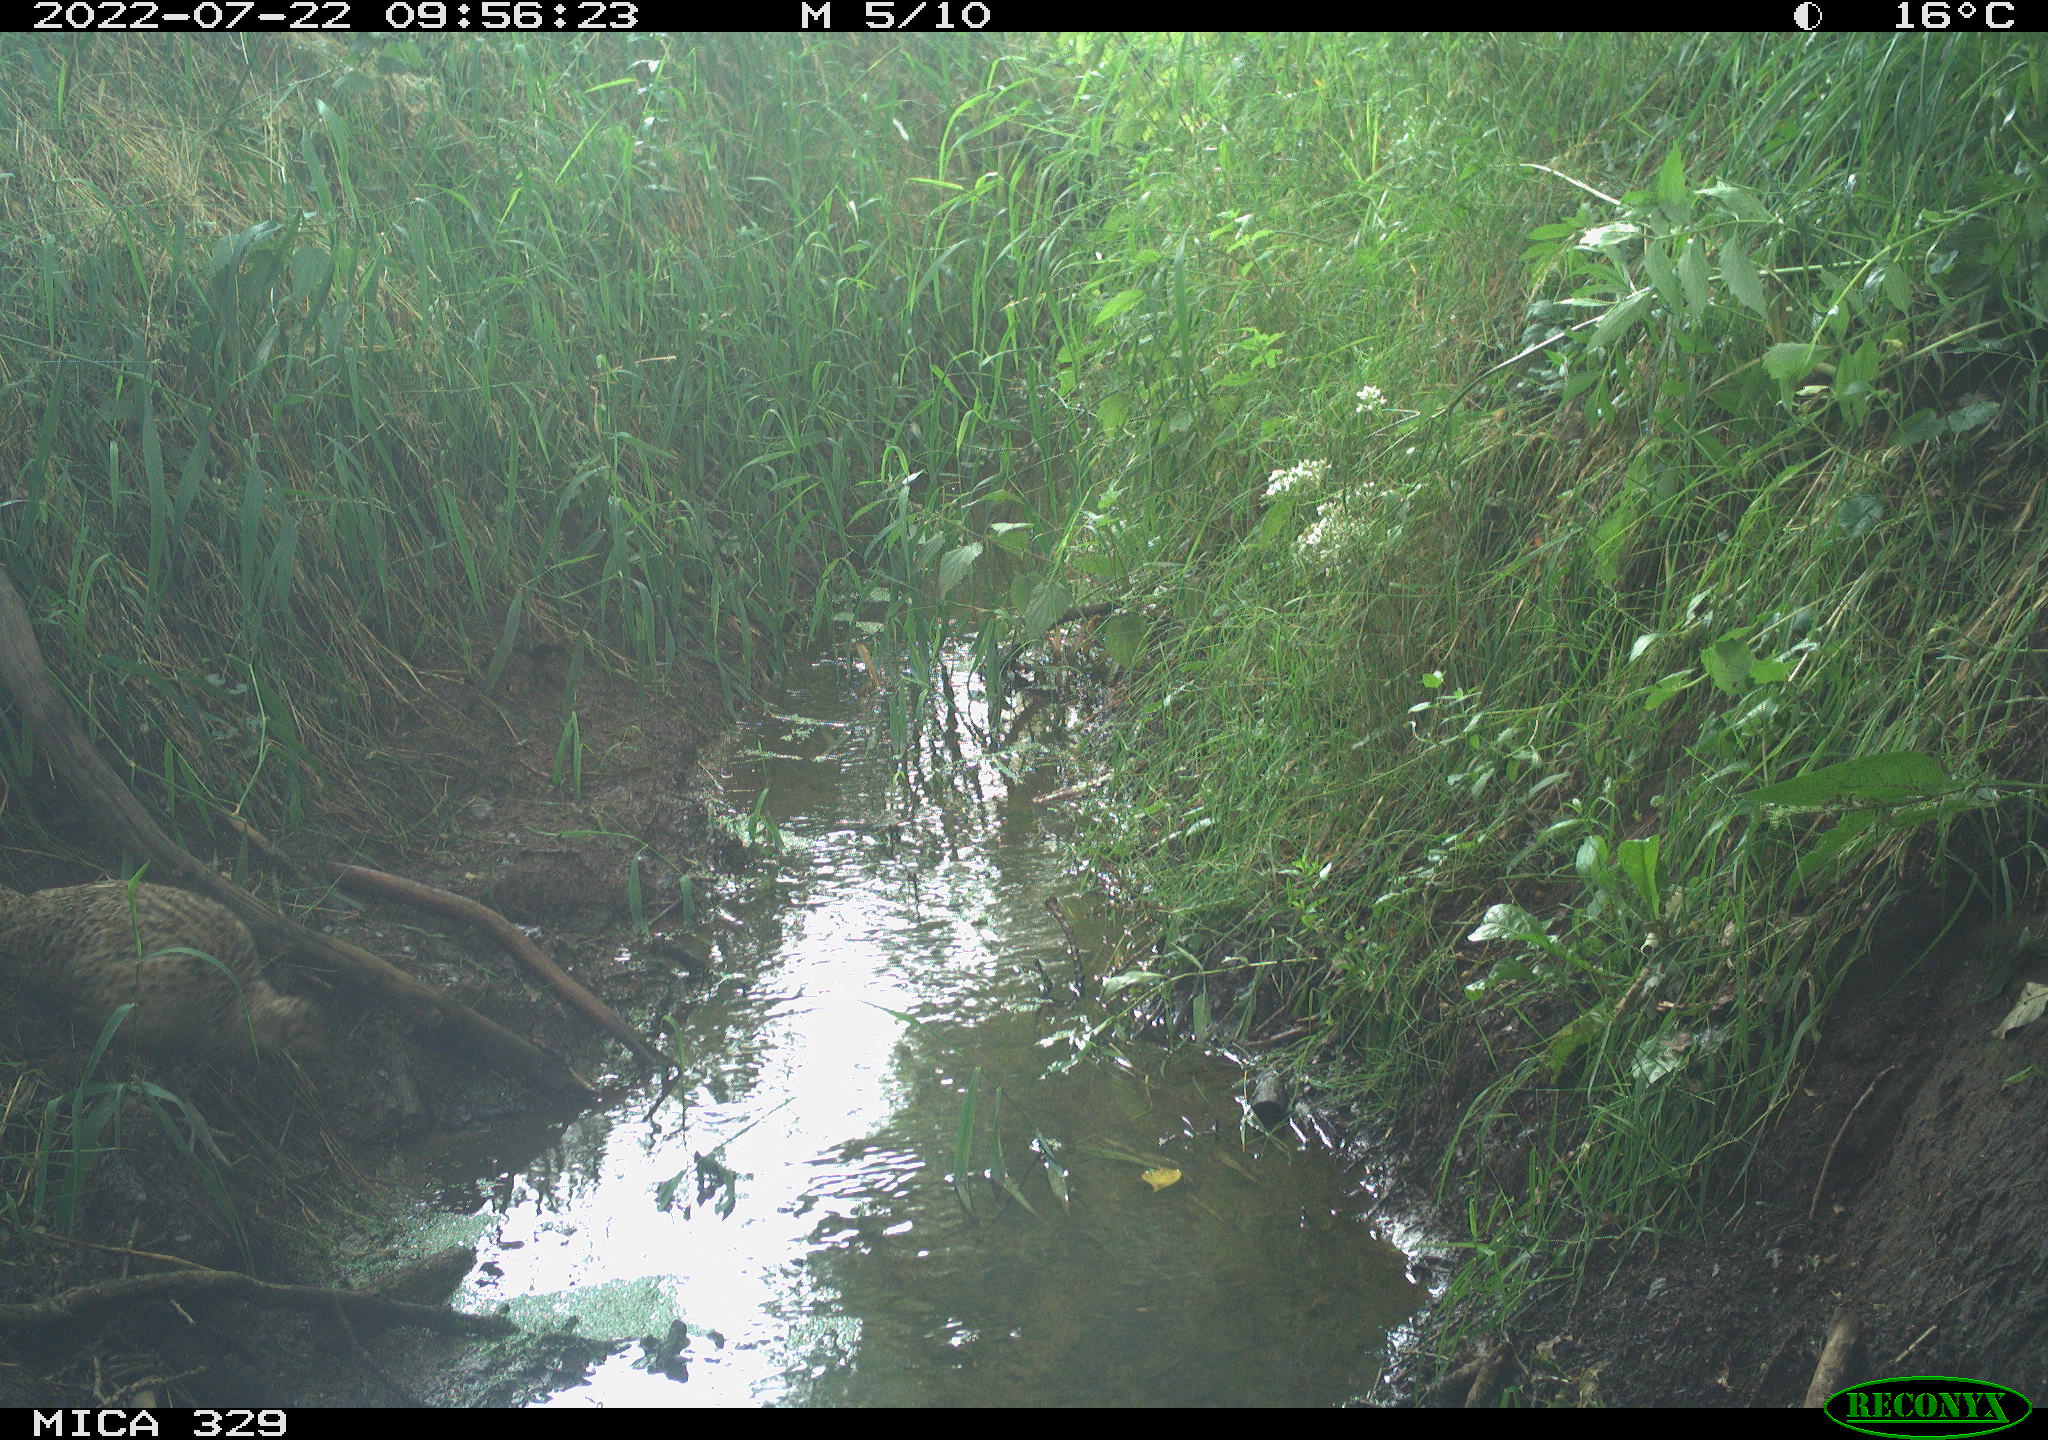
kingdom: Animalia
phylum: Chordata
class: Aves
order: Galliformes
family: Phasianidae
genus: Phasianus
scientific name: Phasianus colchicus
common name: Common pheasant
